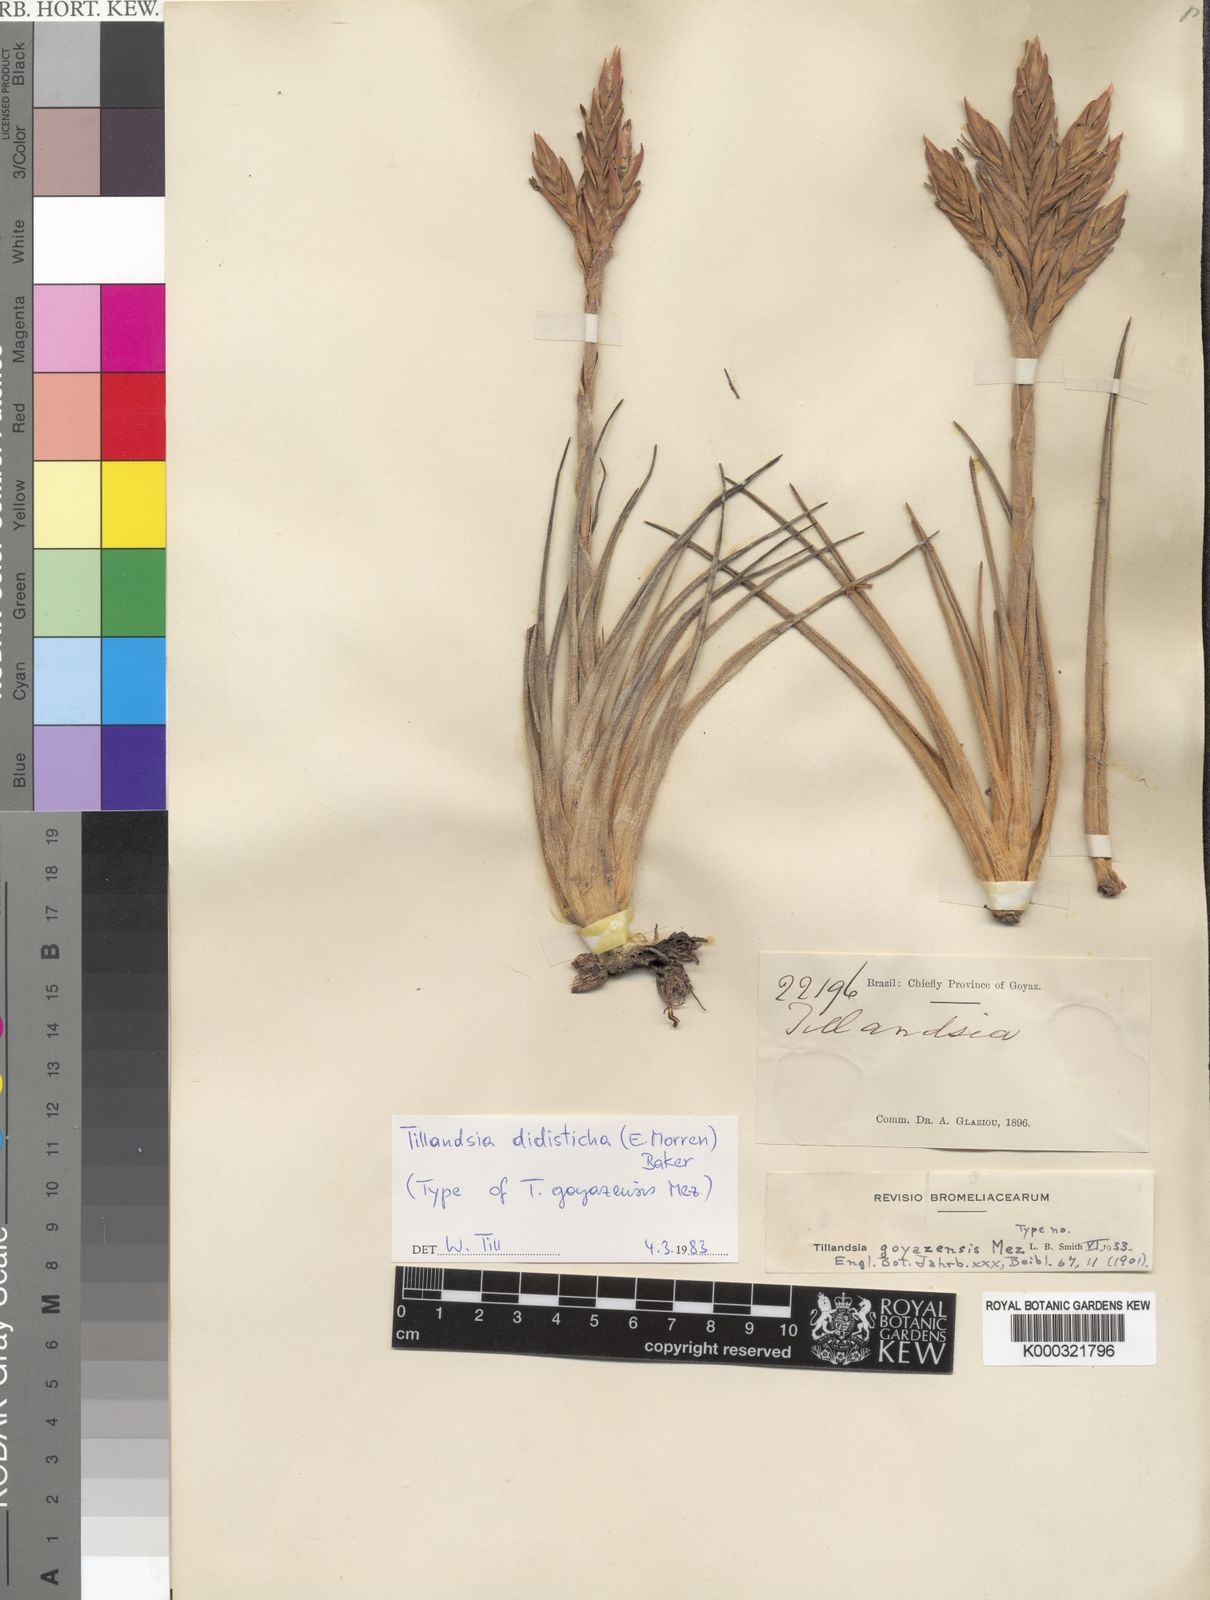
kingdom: Plantae
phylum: Tracheophyta
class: Liliopsida
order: Poales
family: Bromeliaceae
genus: Tillandsia
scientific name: Tillandsia didisticha
